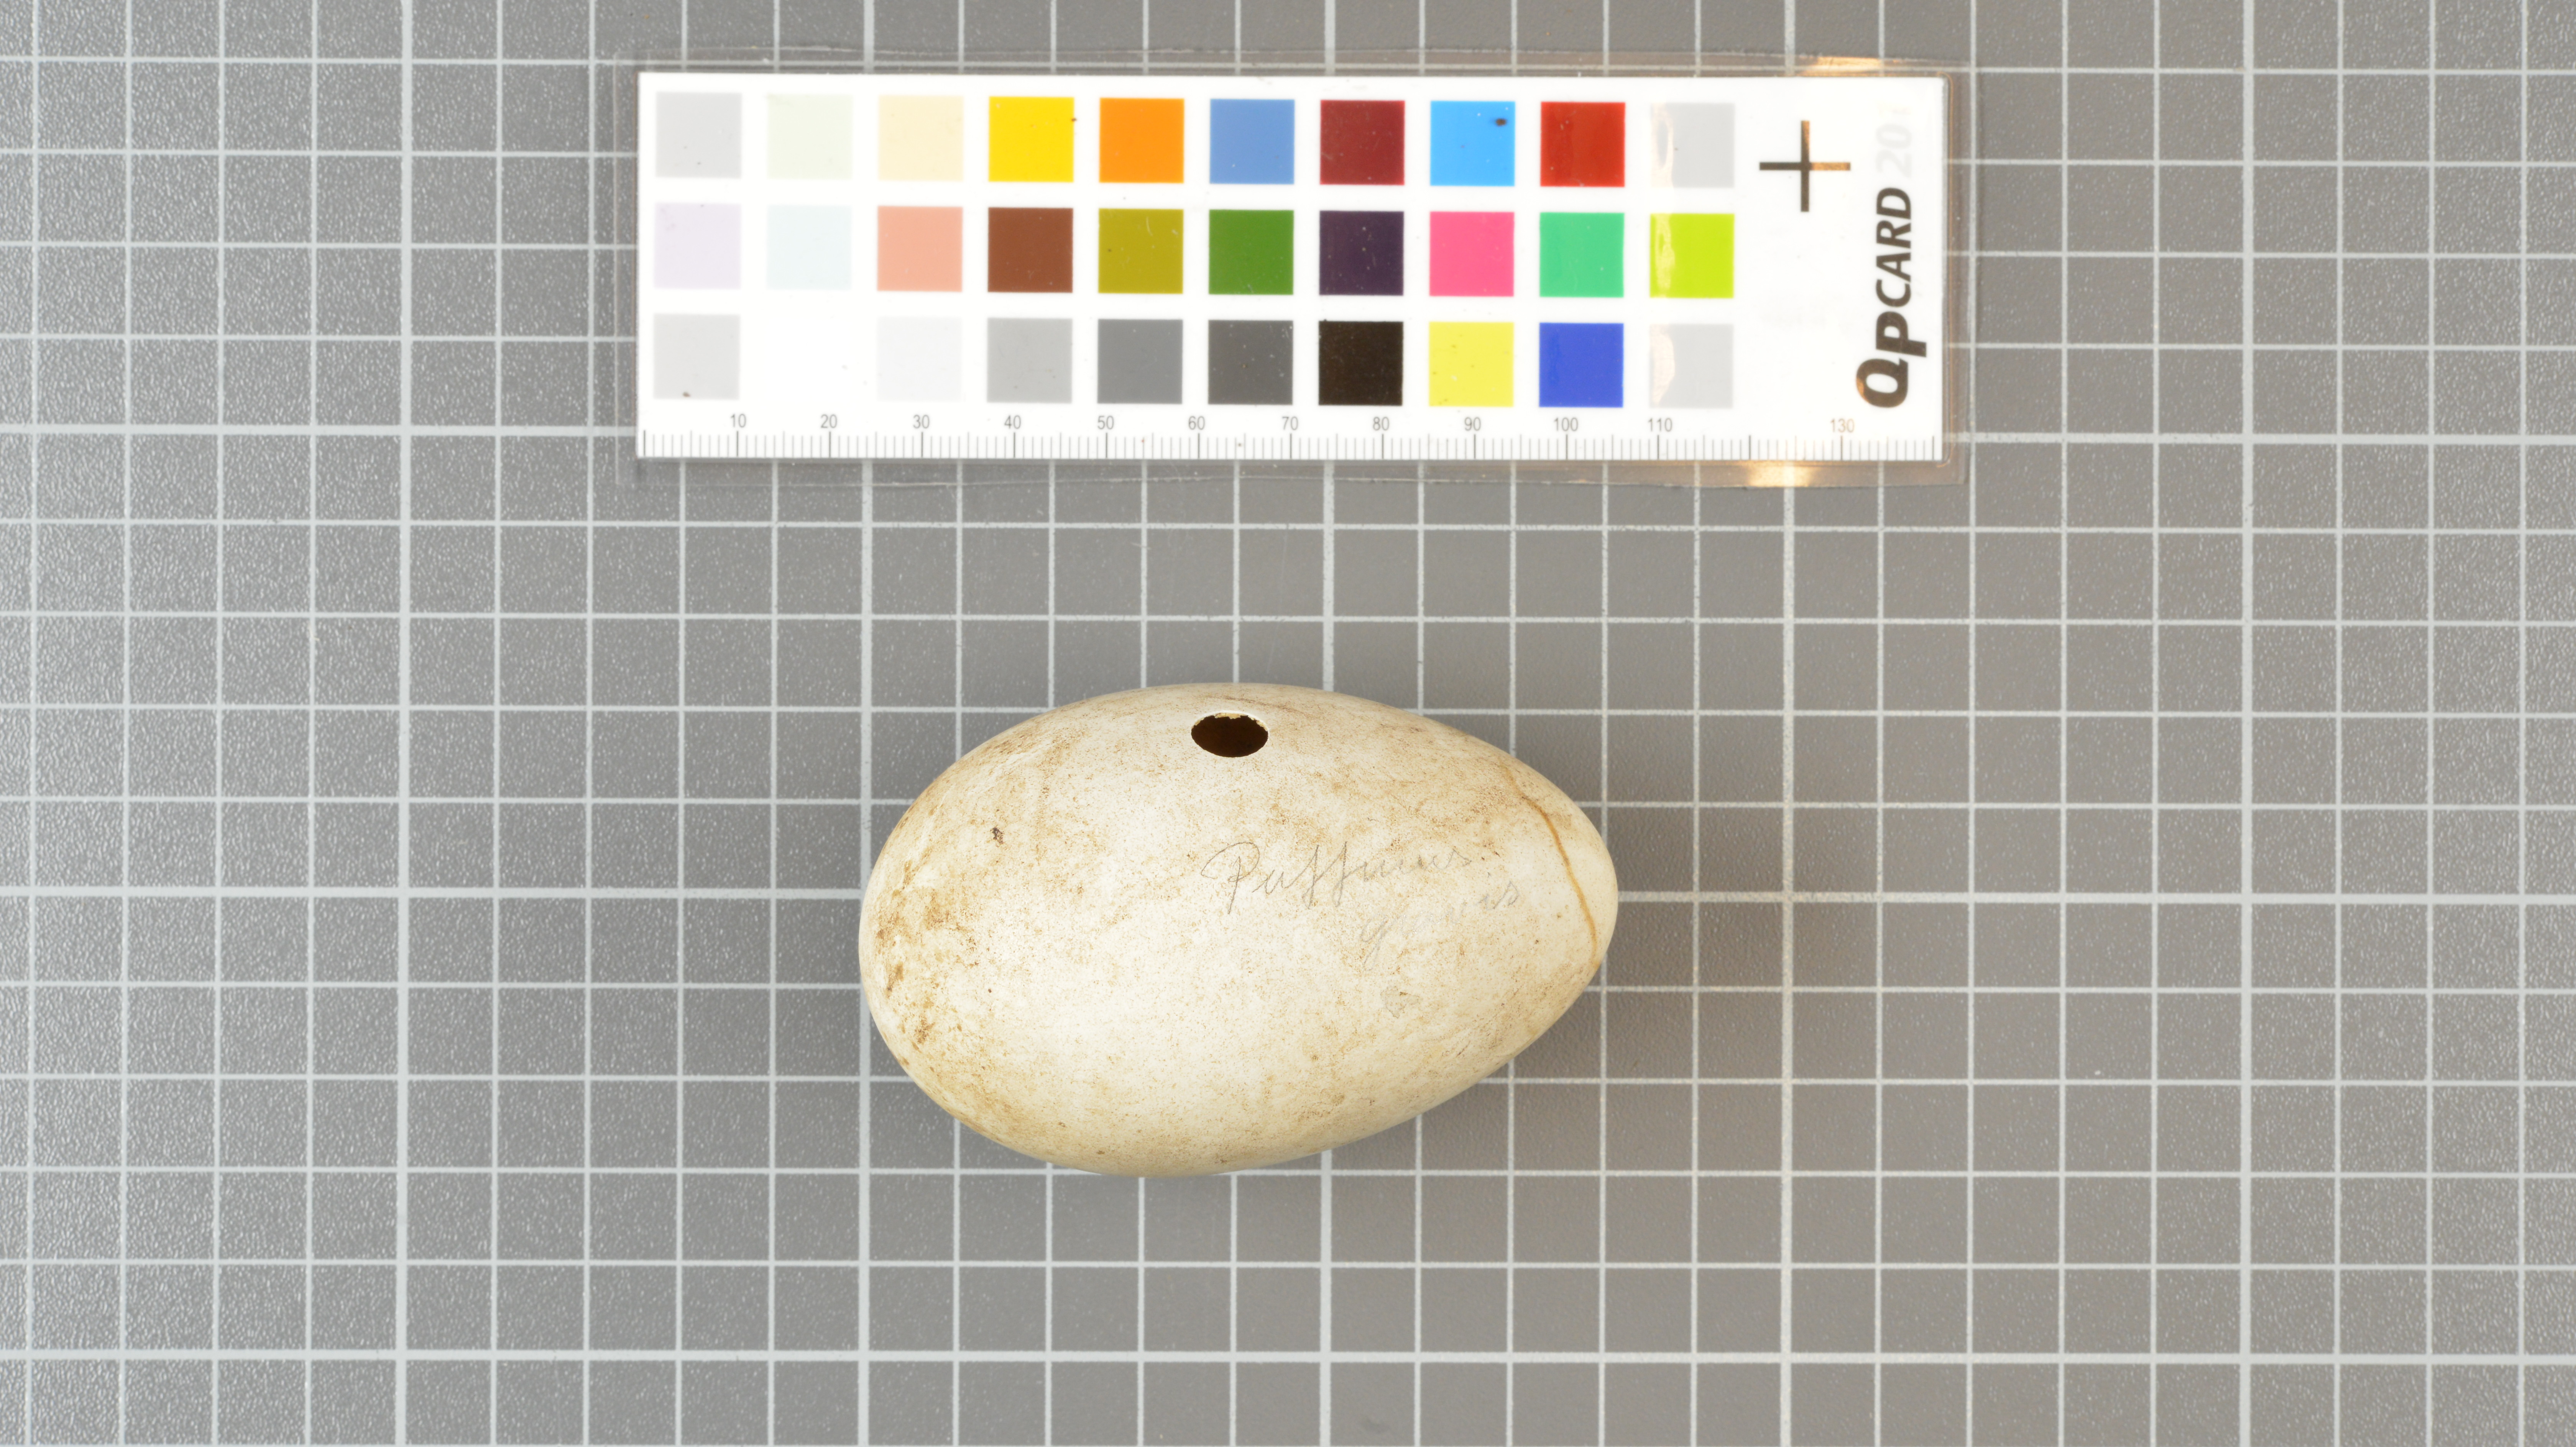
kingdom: Animalia
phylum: Chordata
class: Aves
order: Procellariiformes
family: Procellariidae
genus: Puffinus
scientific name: Puffinus gravis
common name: Great shearwater
